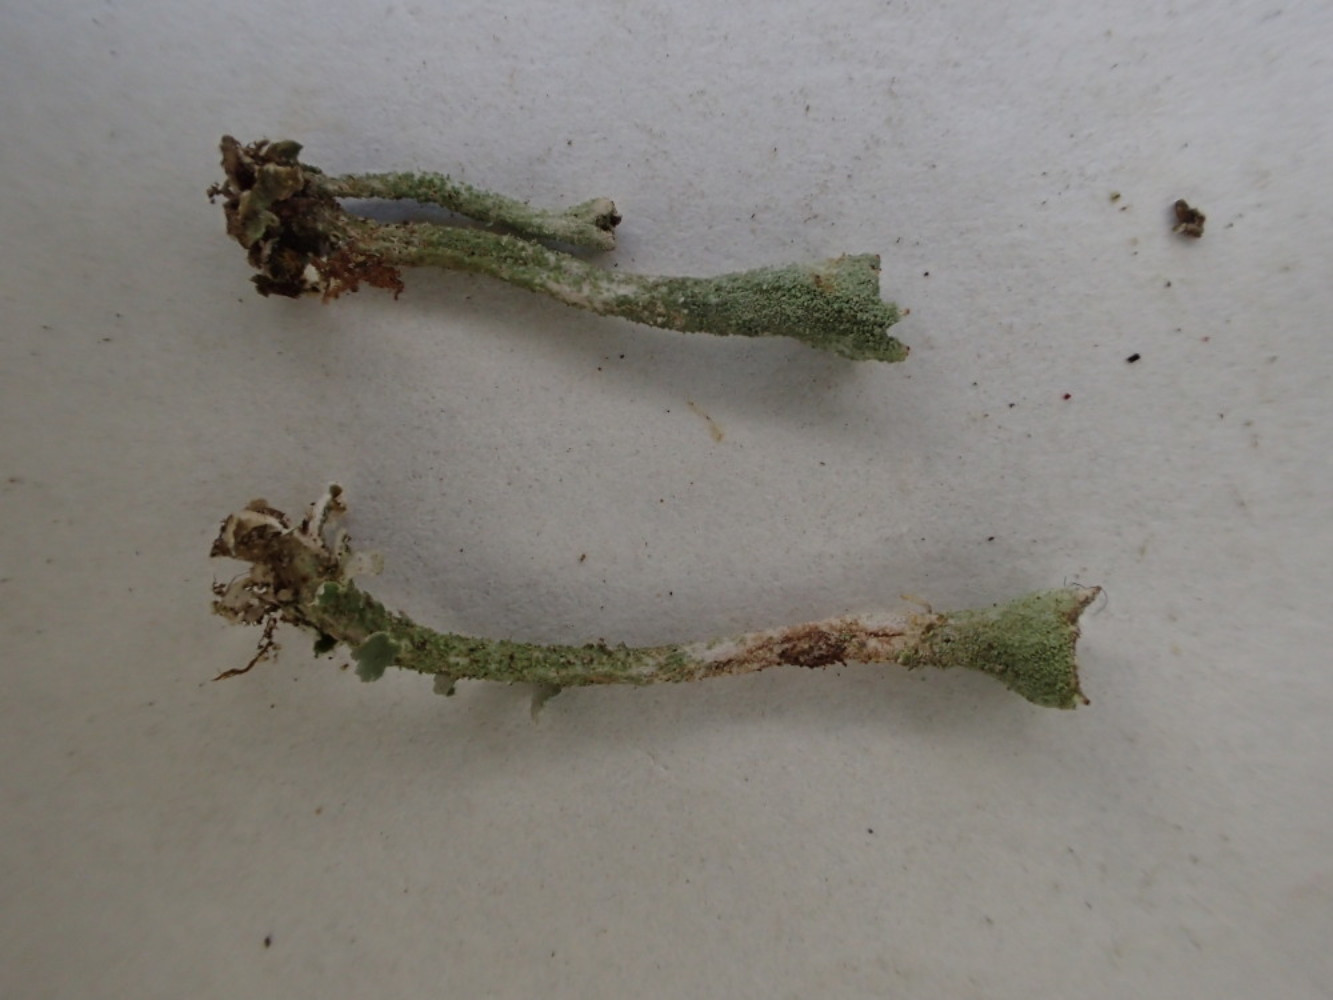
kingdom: Fungi
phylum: Ascomycota
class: Lecanoromycetes
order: Lecanorales
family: Cladoniaceae
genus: Cladonia
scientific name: Cladonia
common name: brungrøn bægerlav
